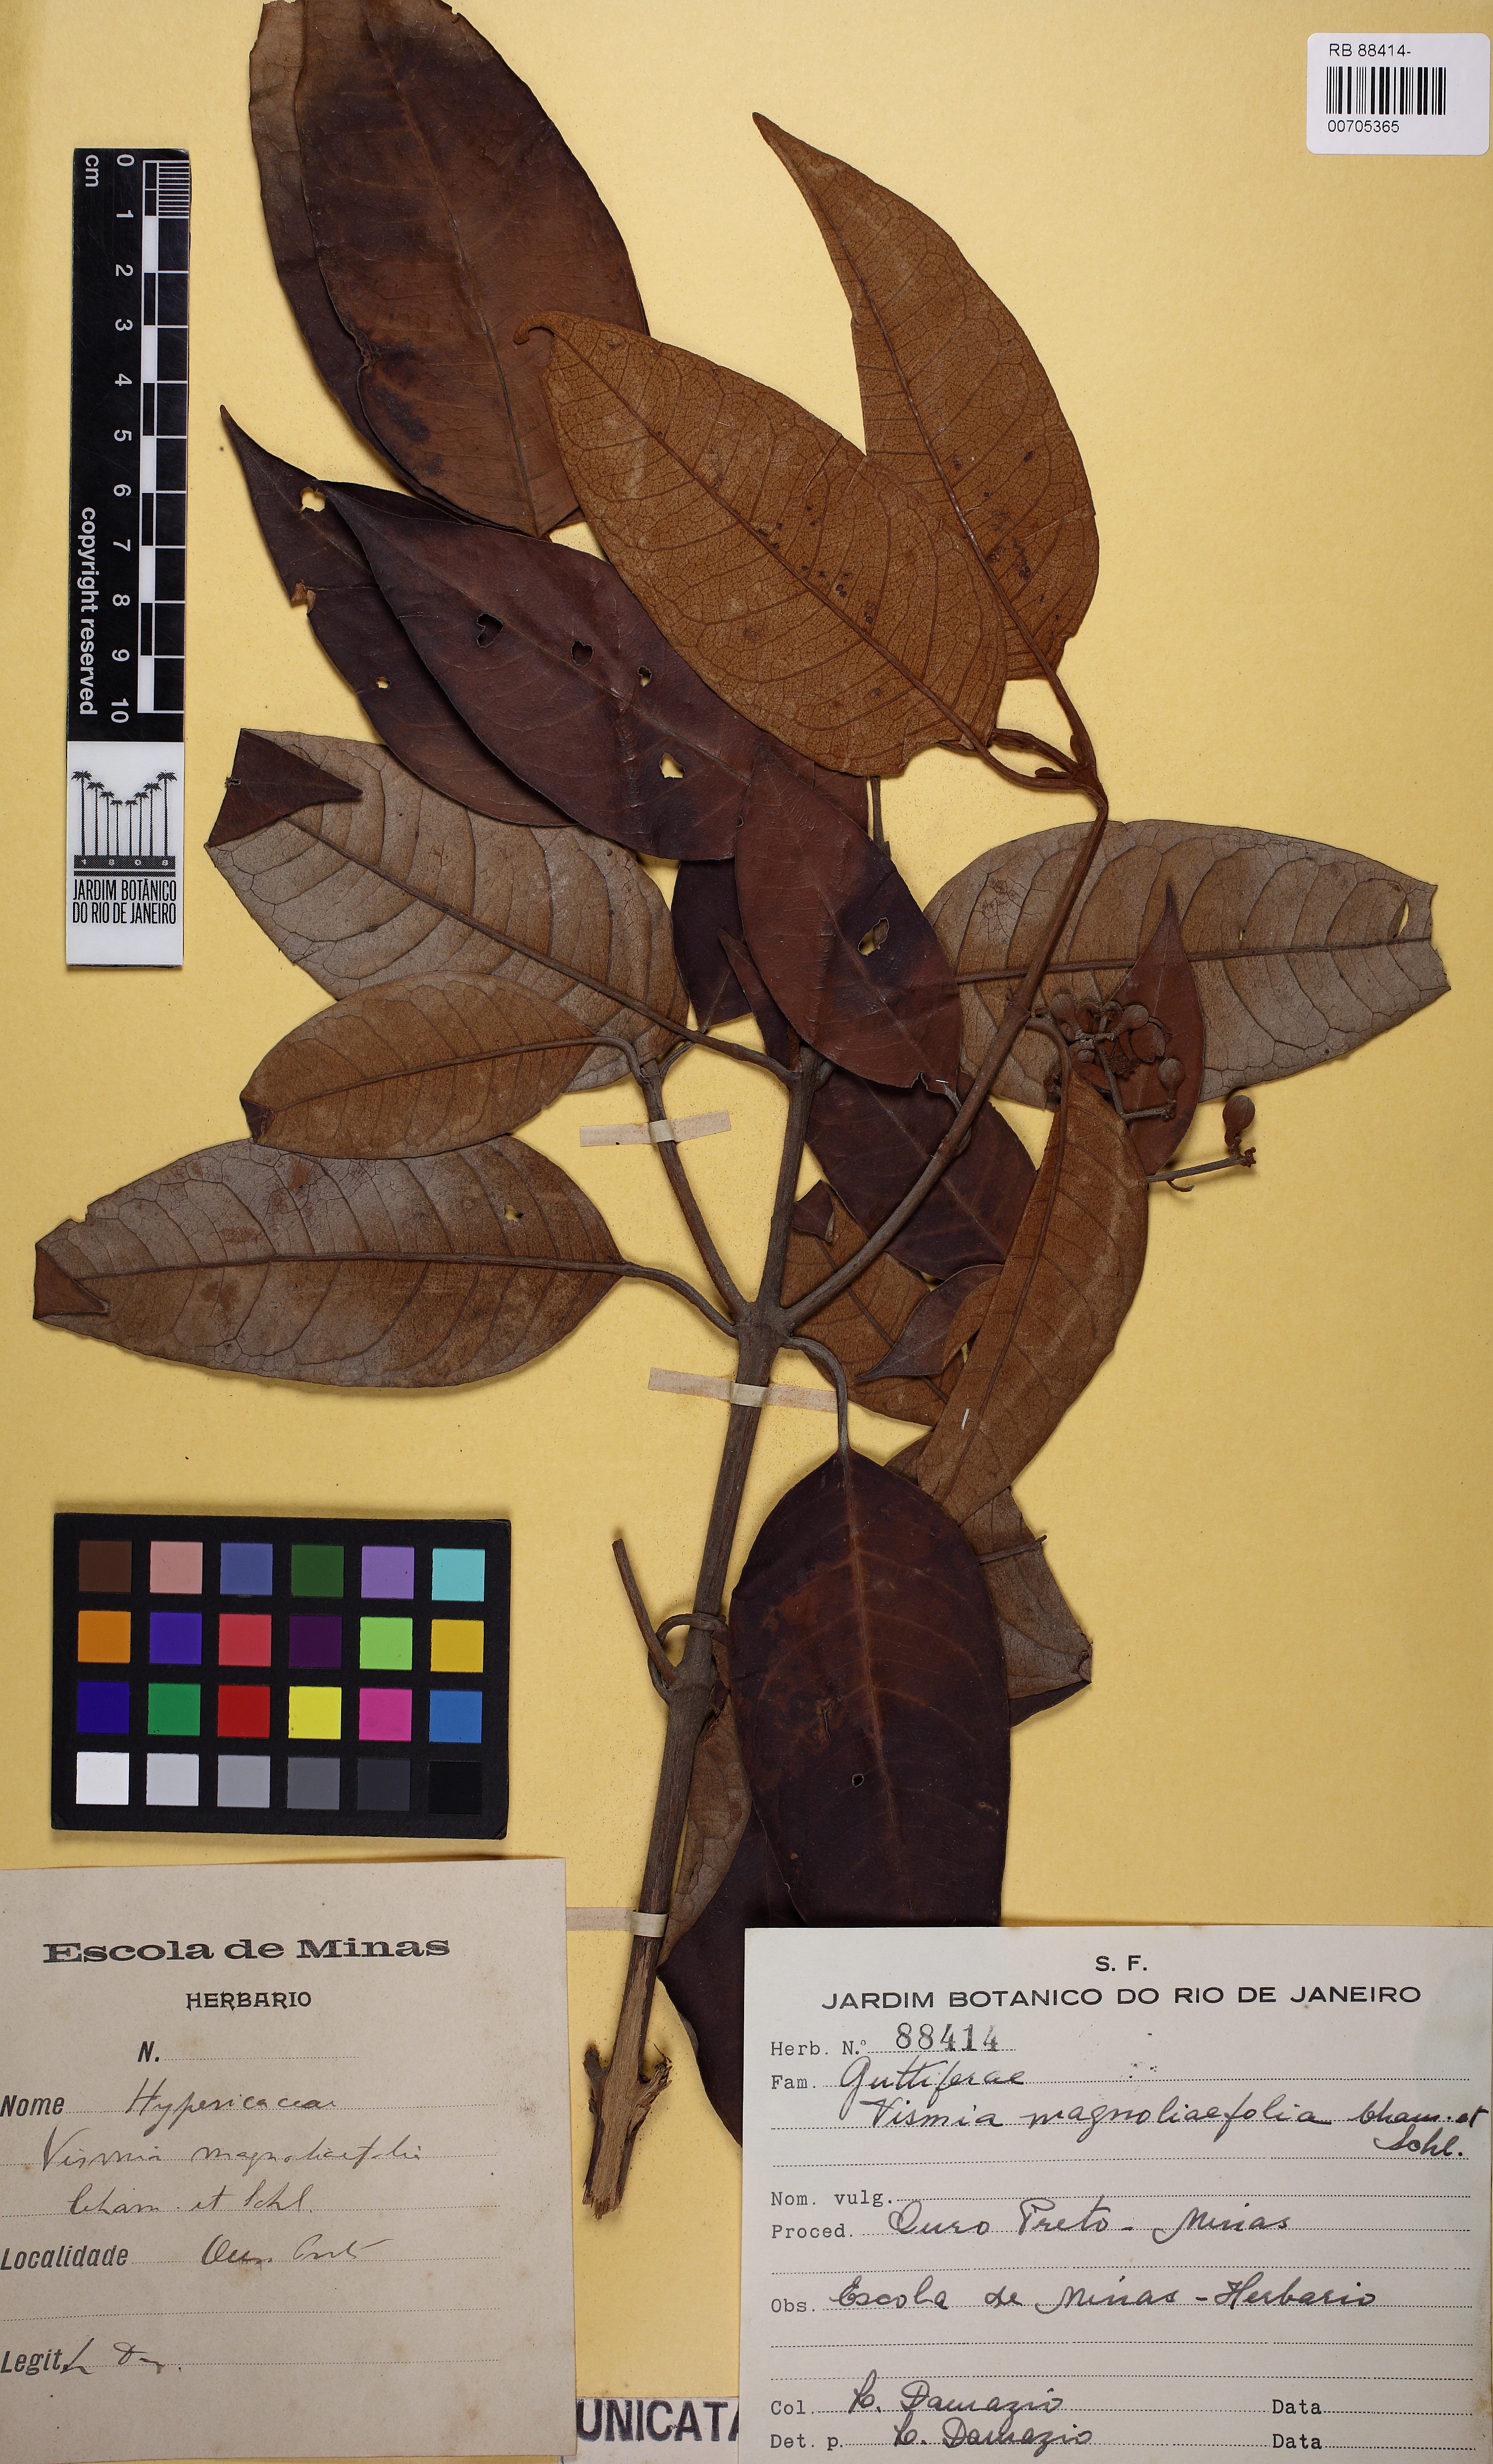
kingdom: Plantae
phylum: Tracheophyta
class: Magnoliopsida
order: Malpighiales
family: Hypericaceae
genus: Vismia
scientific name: Vismia magnoliifolia
